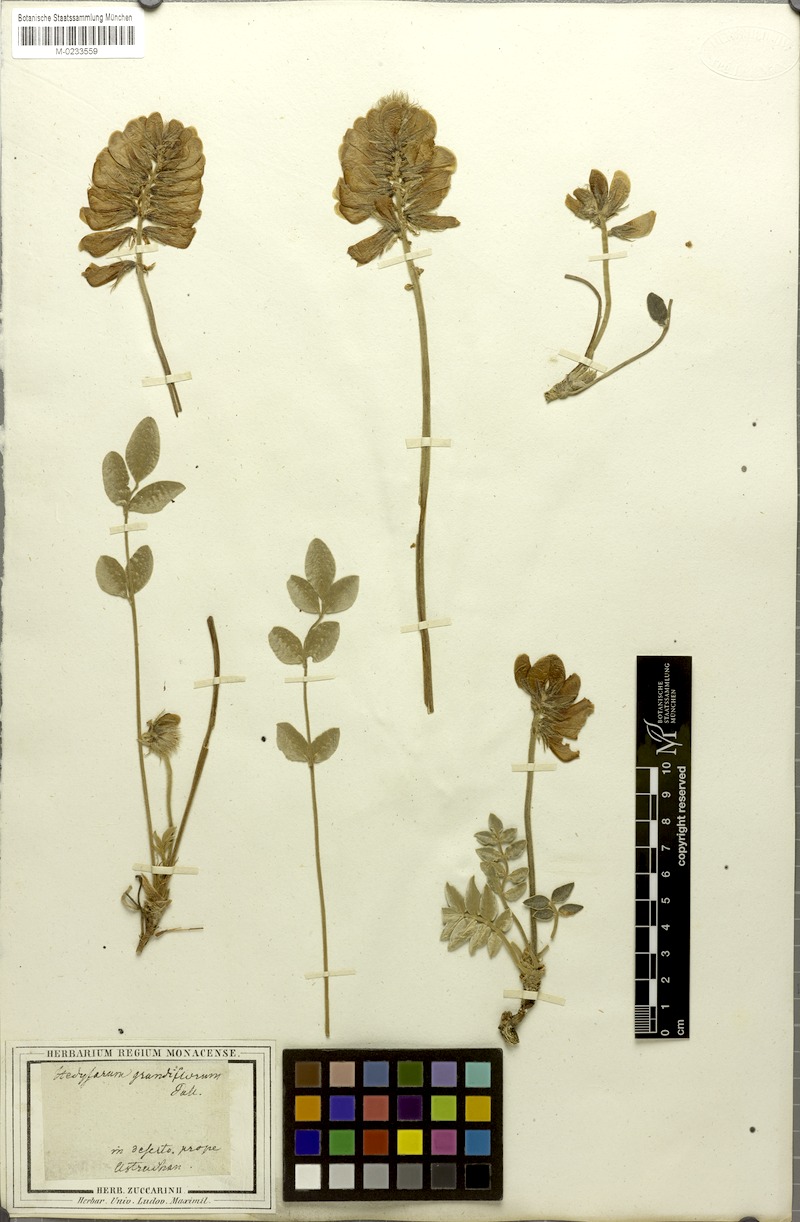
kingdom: Plantae
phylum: Tracheophyta
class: Magnoliopsida
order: Fabales
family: Fabaceae
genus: Hedysarum
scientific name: Hedysarum grandiflorum
